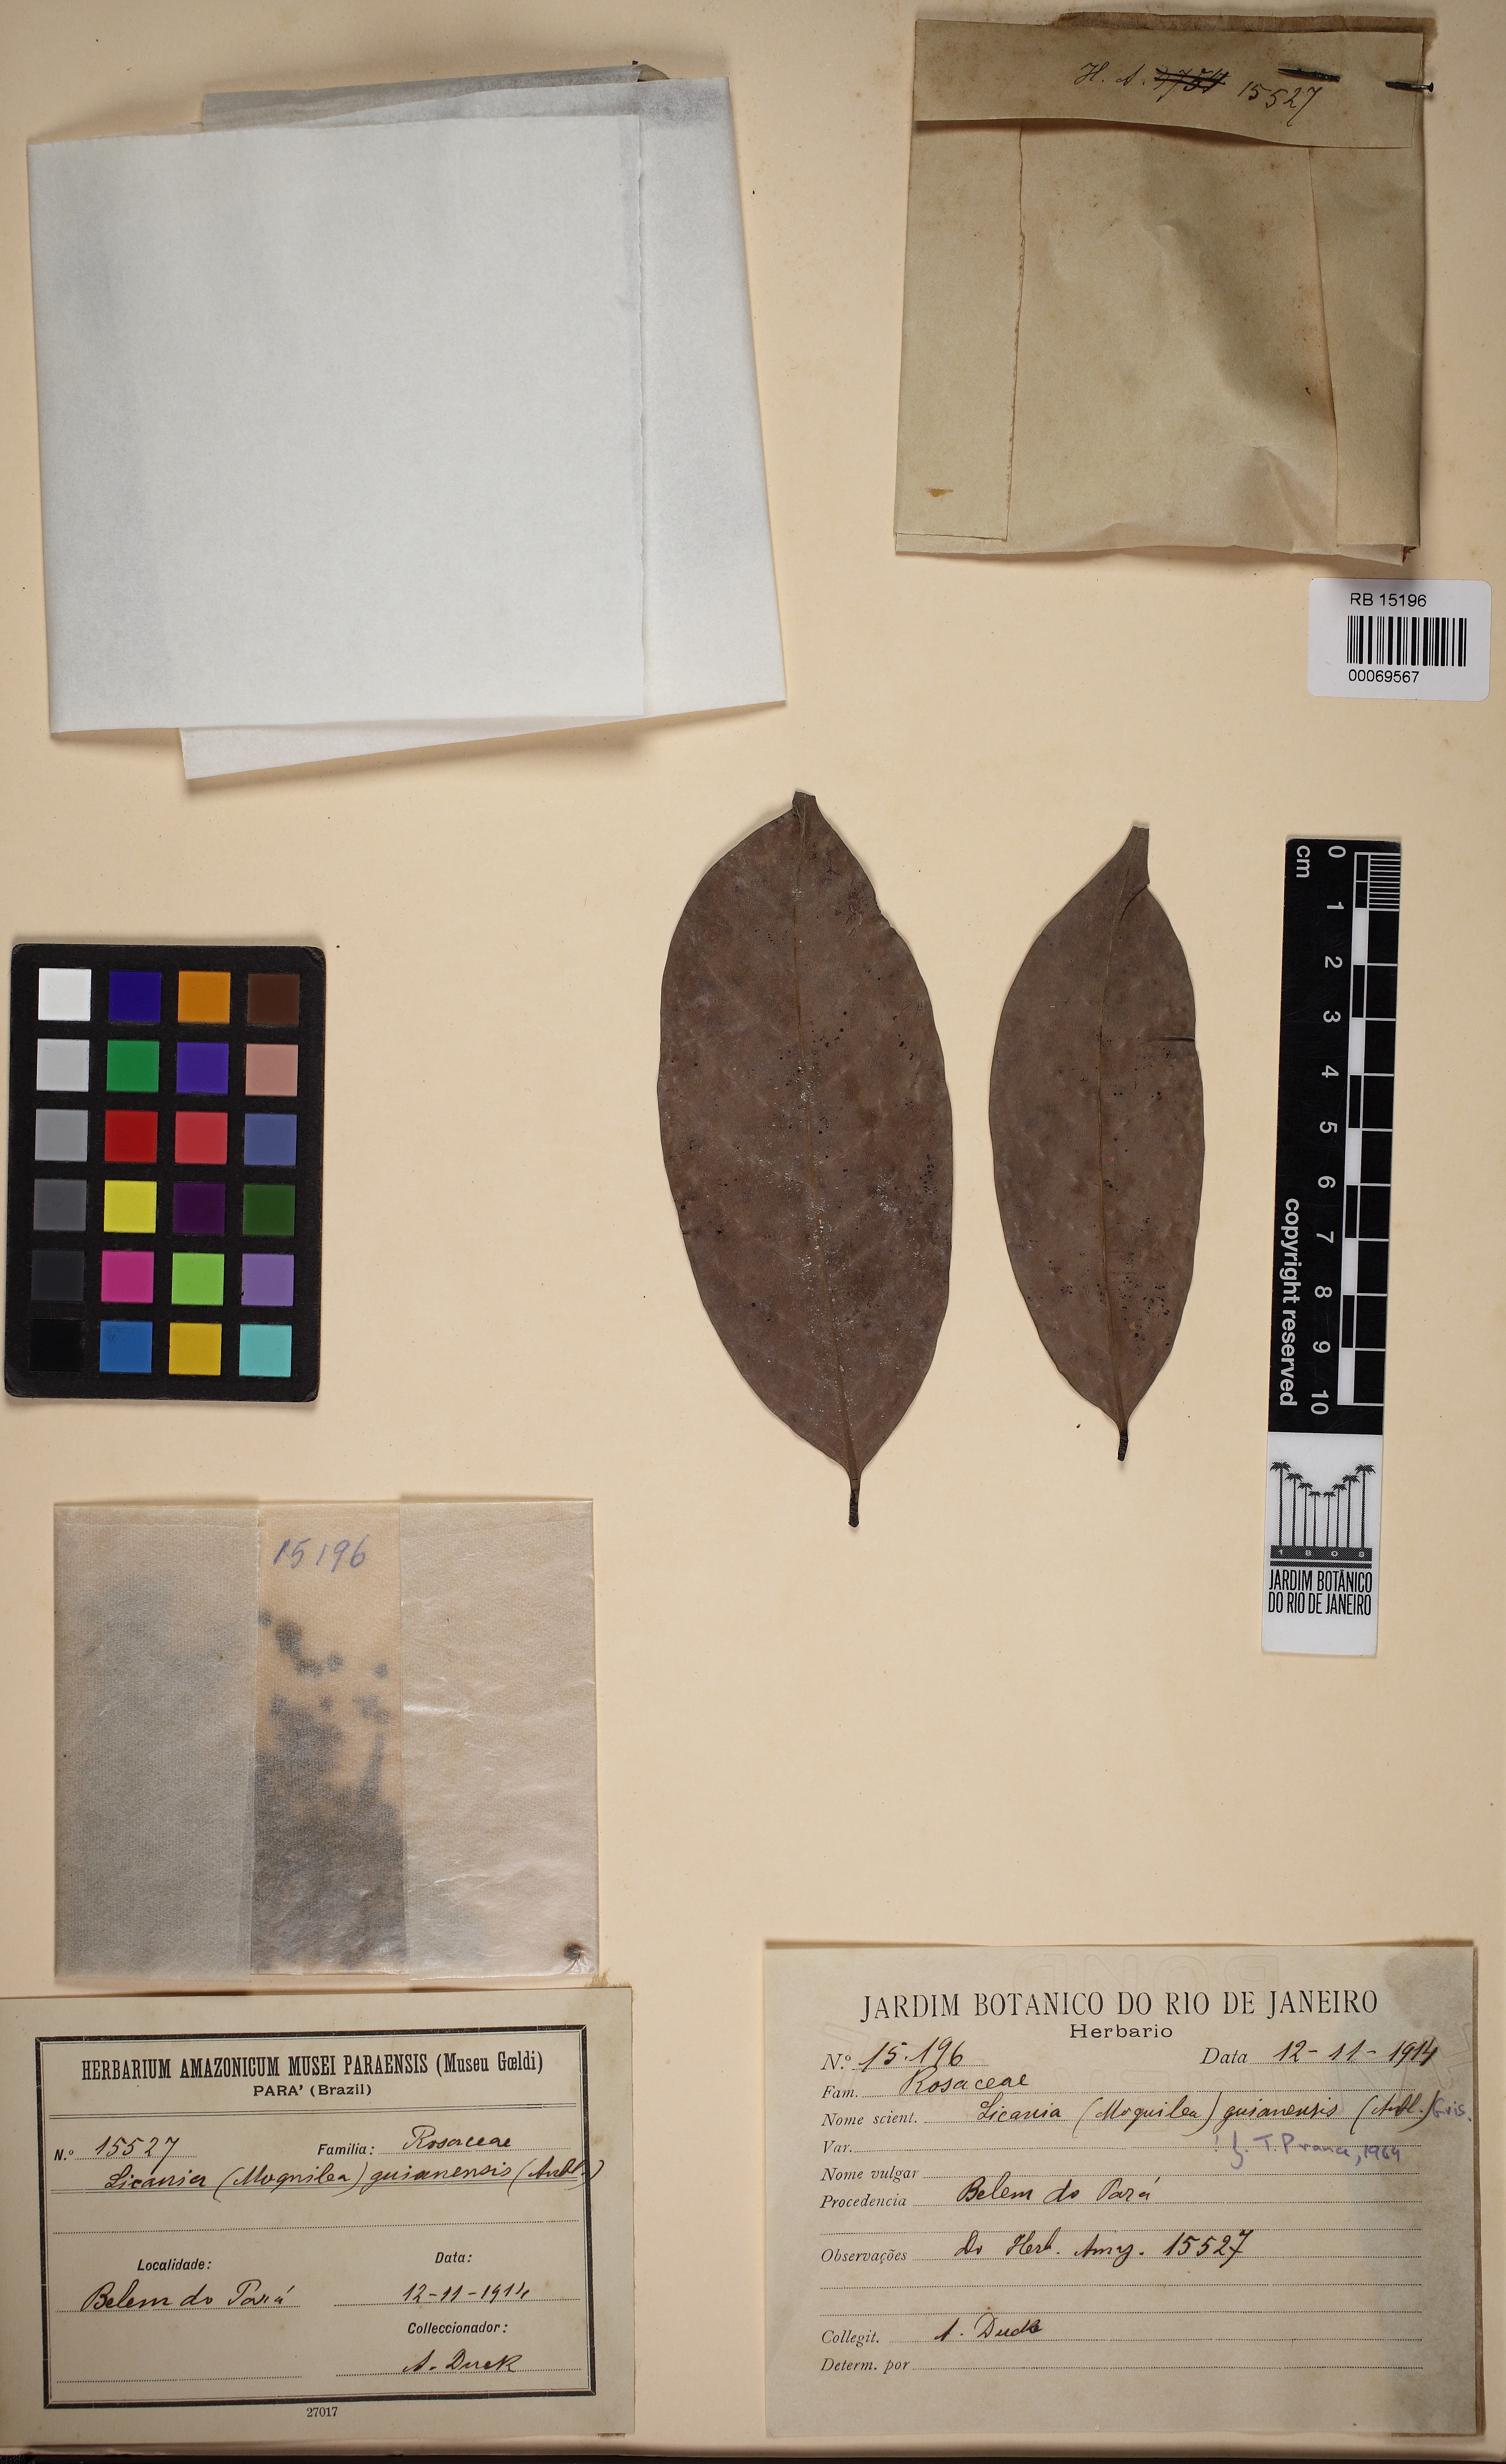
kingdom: Plantae
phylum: Tracheophyta
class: Magnoliopsida
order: Malpighiales
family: Chrysobalanaceae
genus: Moquilea
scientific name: Moquilea guianensis
